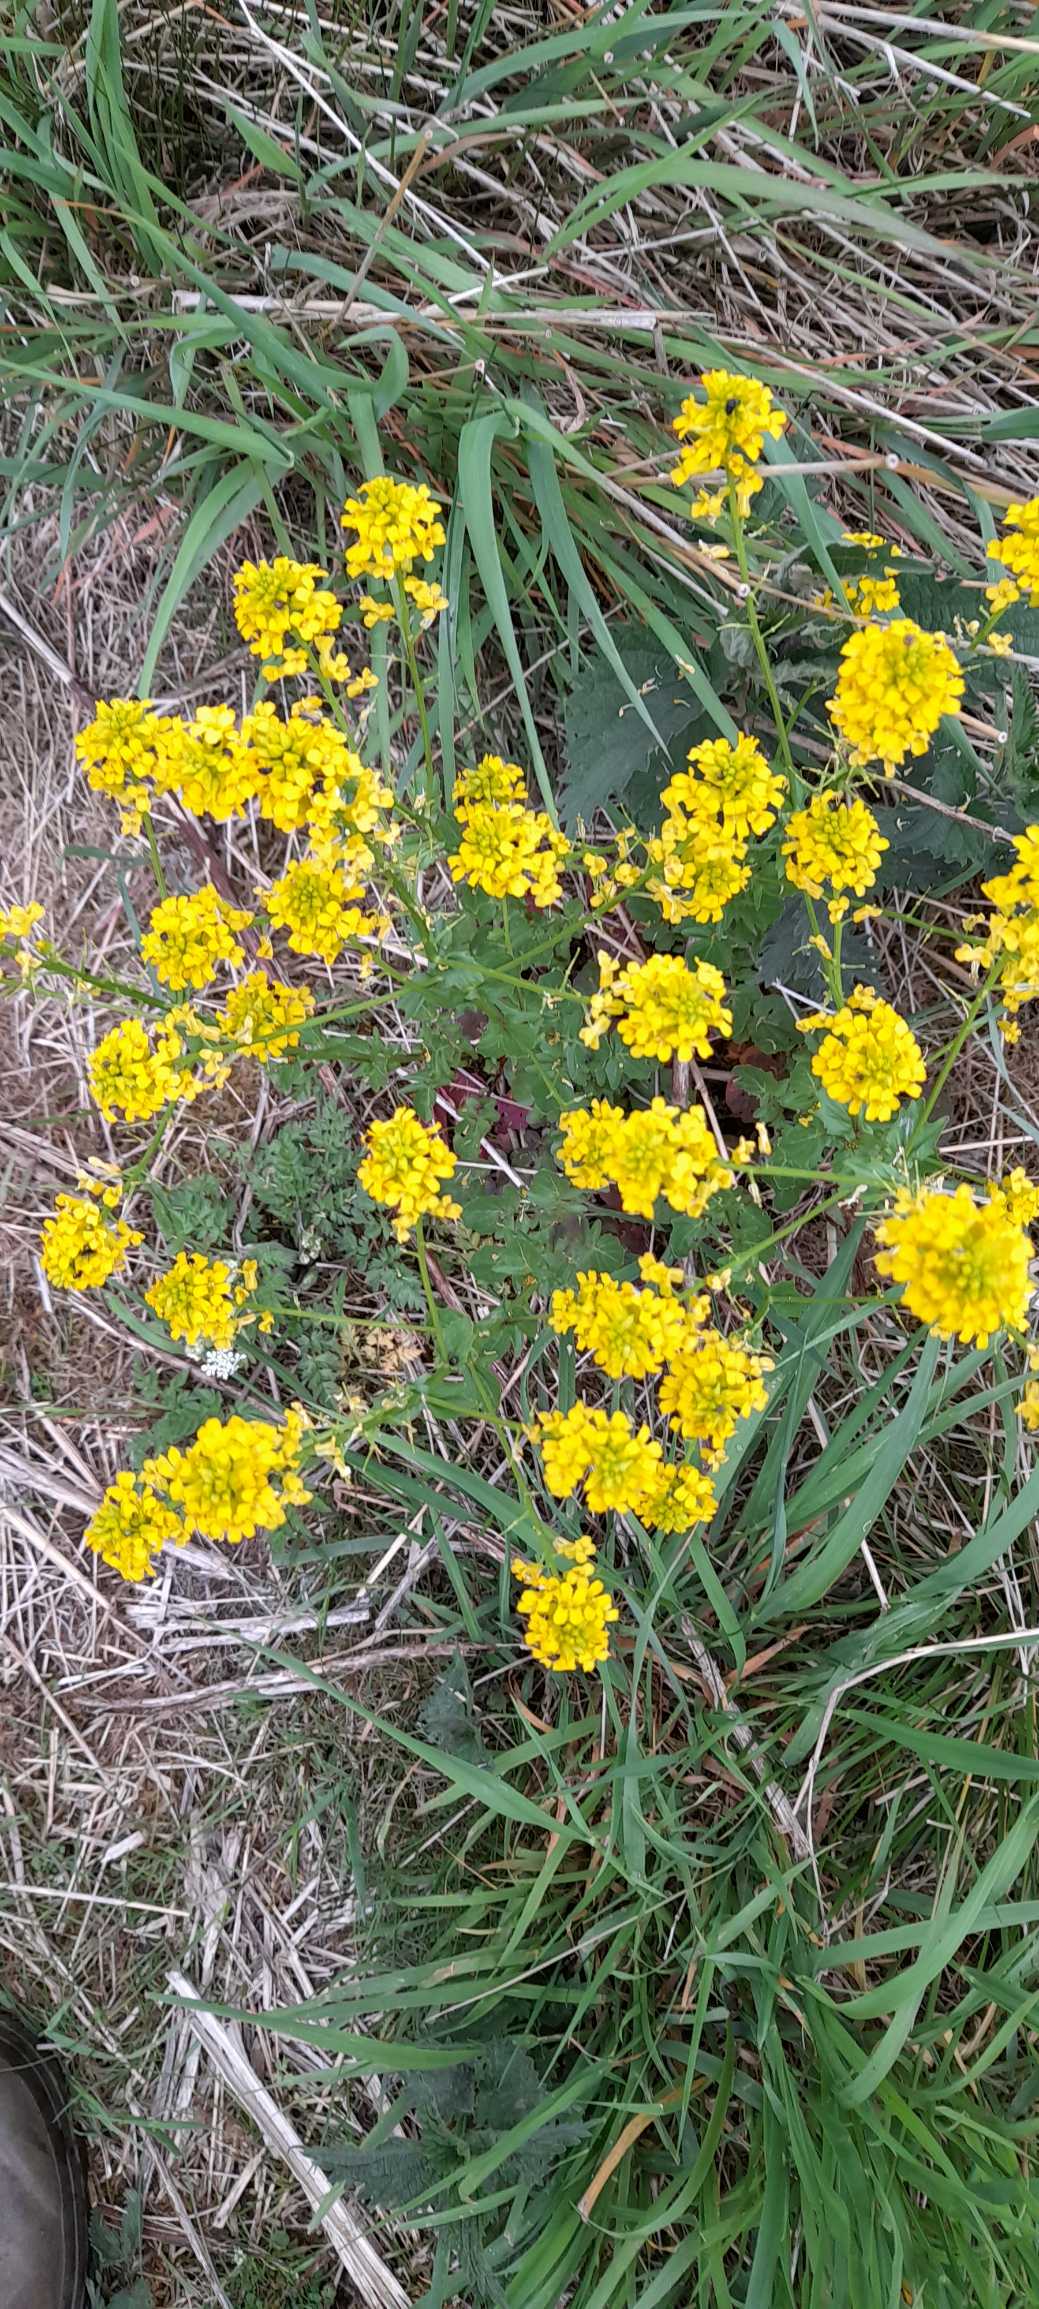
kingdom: Plantae
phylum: Tracheophyta
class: Magnoliopsida
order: Brassicales
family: Brassicaceae
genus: Barbarea
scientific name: Barbarea vulgaris
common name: Udspærret vinterkarse
